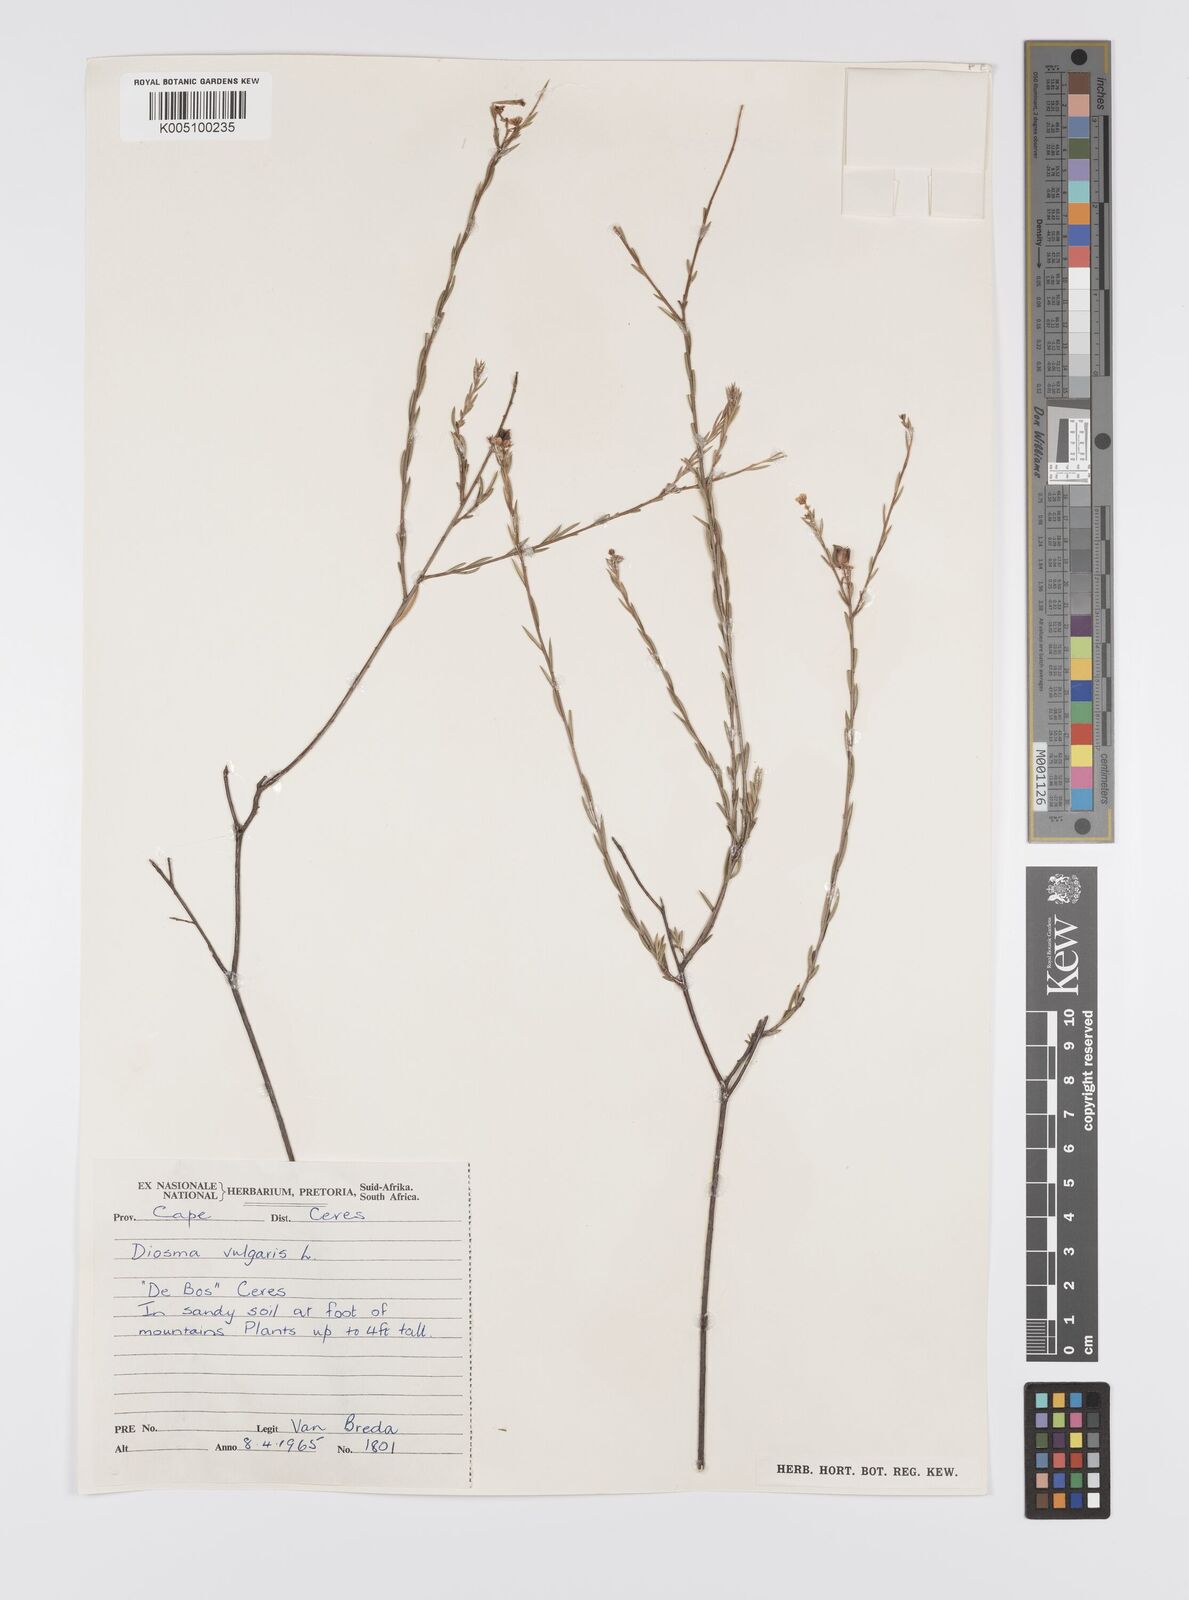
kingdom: Plantae
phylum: Tracheophyta
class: Magnoliopsida
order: Sapindales
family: Rutaceae
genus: Diosma
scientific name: Diosma hirsuta
